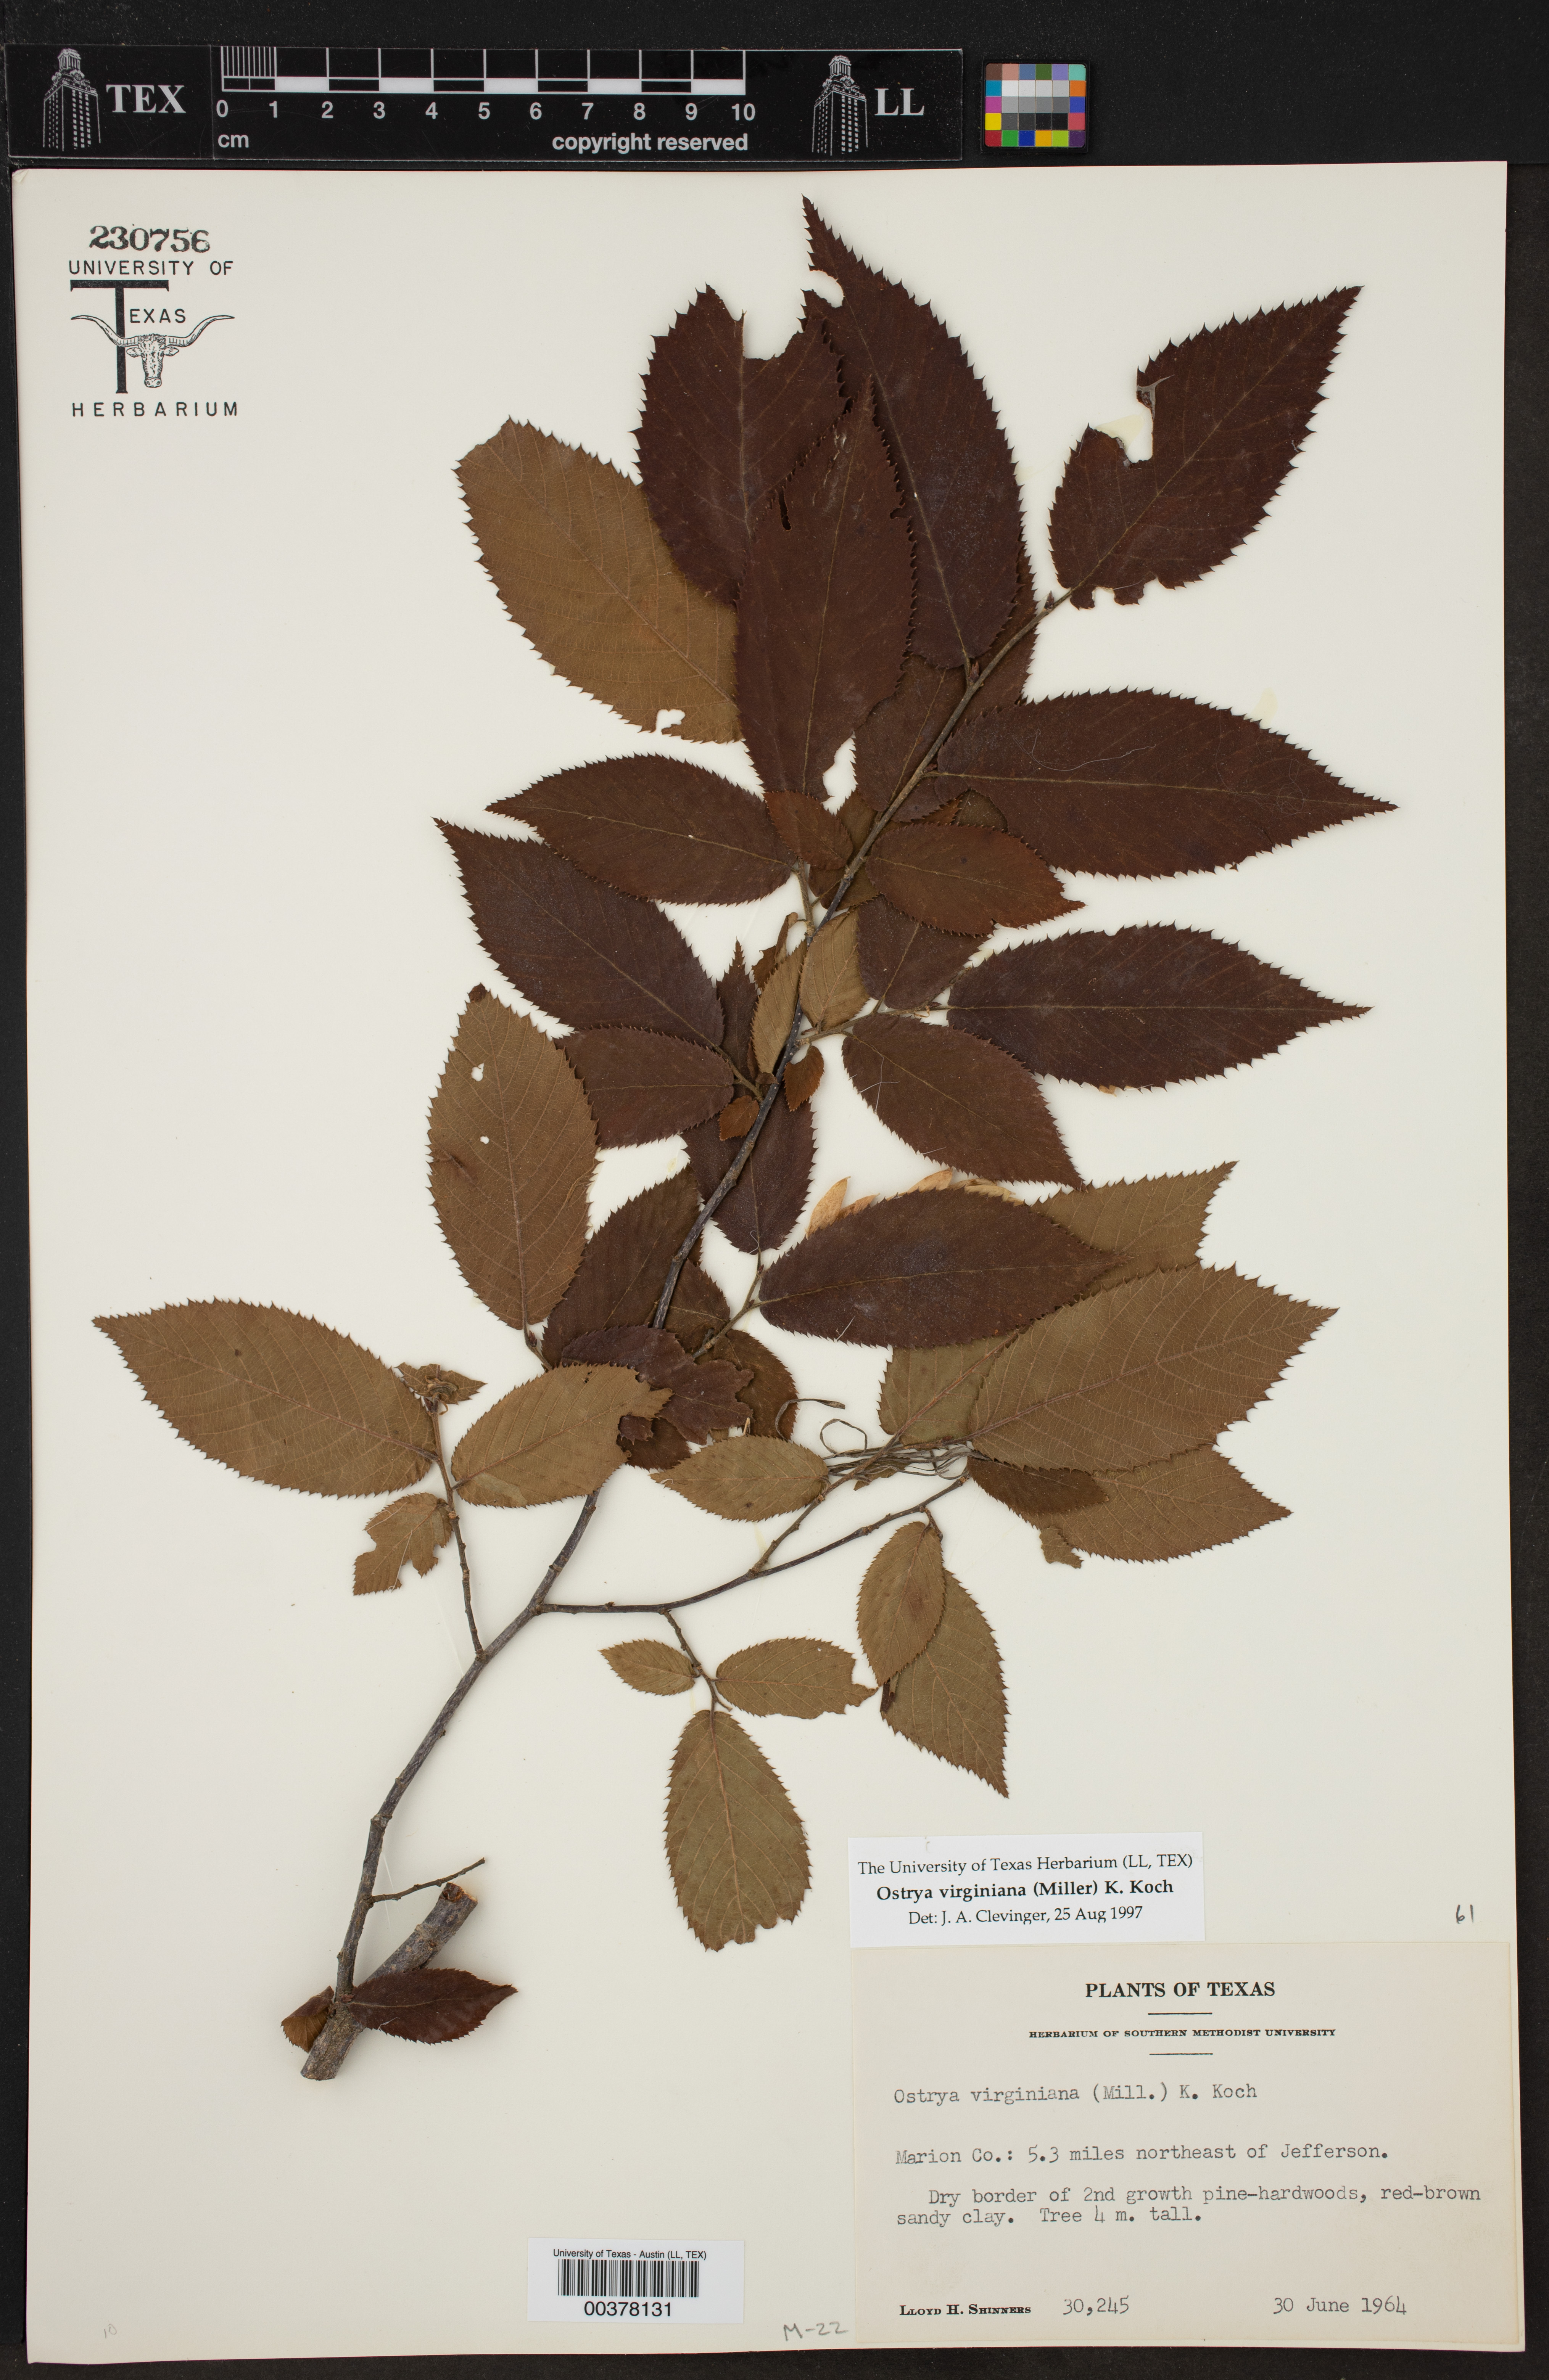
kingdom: Plantae
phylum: Tracheophyta
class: Magnoliopsida
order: Fagales
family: Betulaceae
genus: Ostrya
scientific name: Ostrya virginiana
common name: Ironwood
